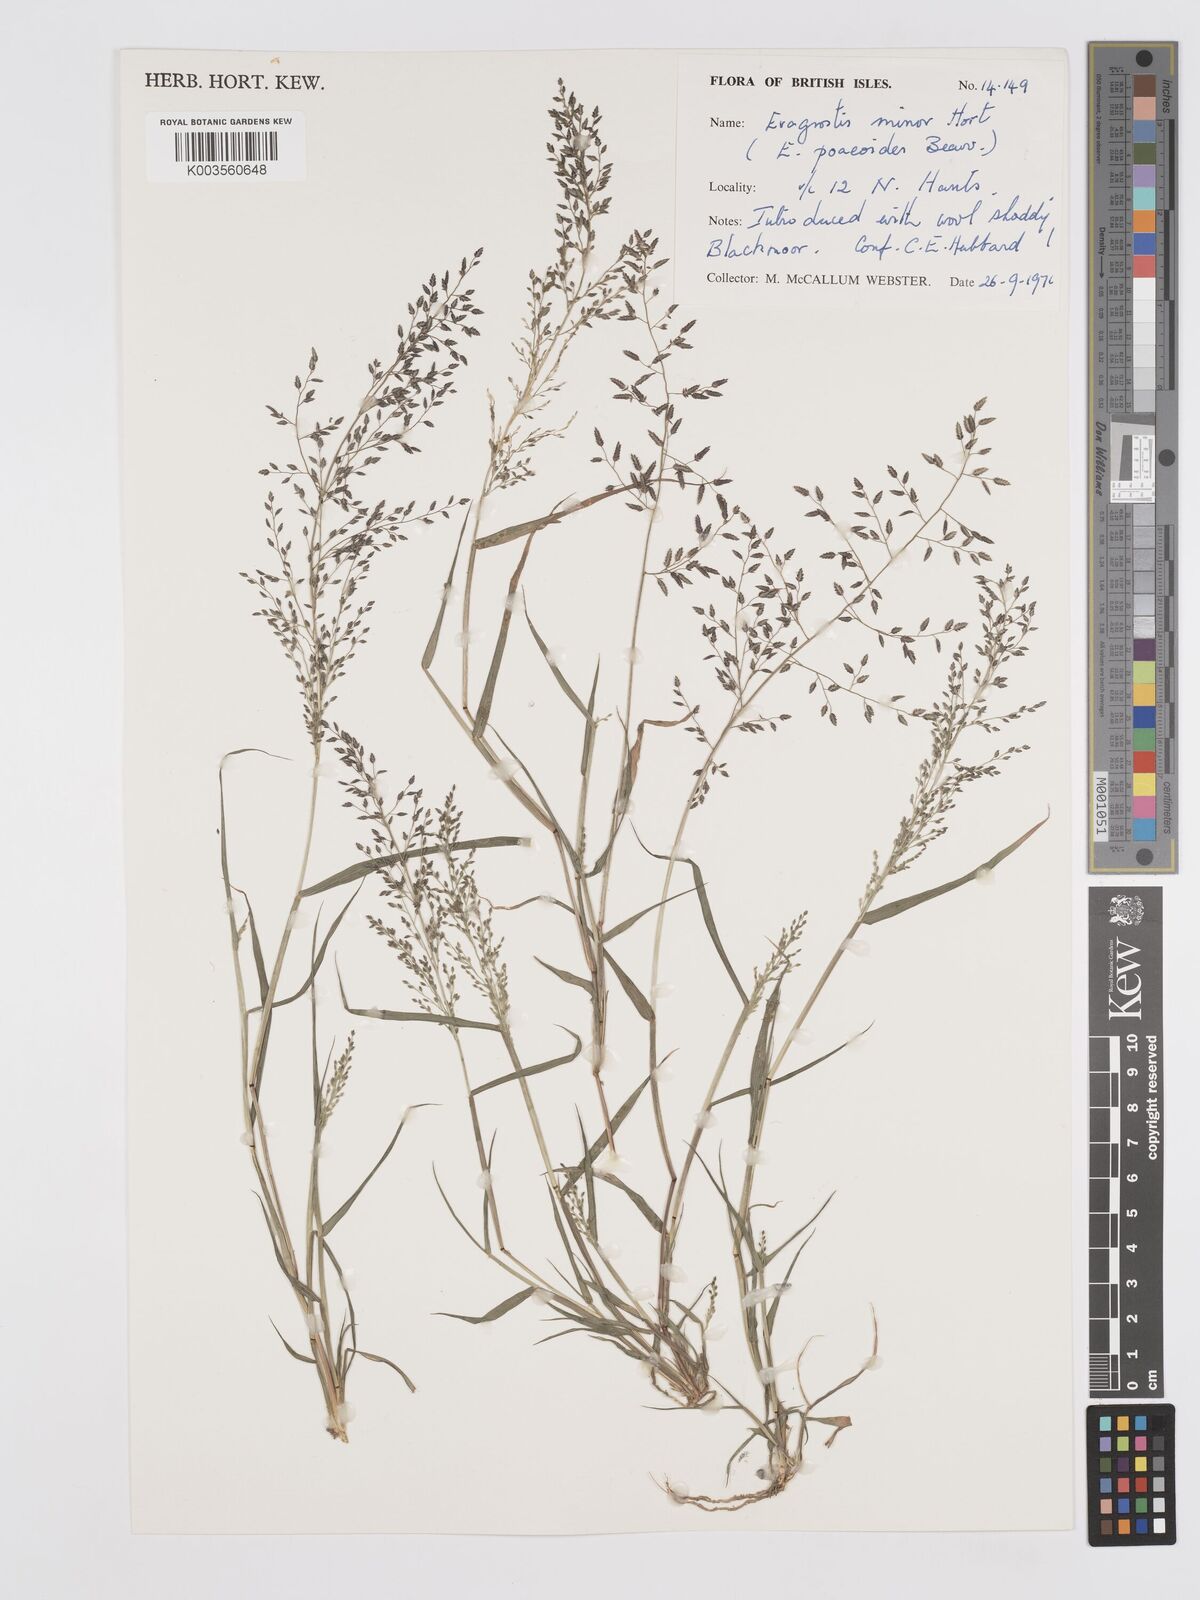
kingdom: Plantae
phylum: Tracheophyta
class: Liliopsida
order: Poales
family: Poaceae
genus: Eragrostis
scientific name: Eragrostis minor
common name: Small love-grass
